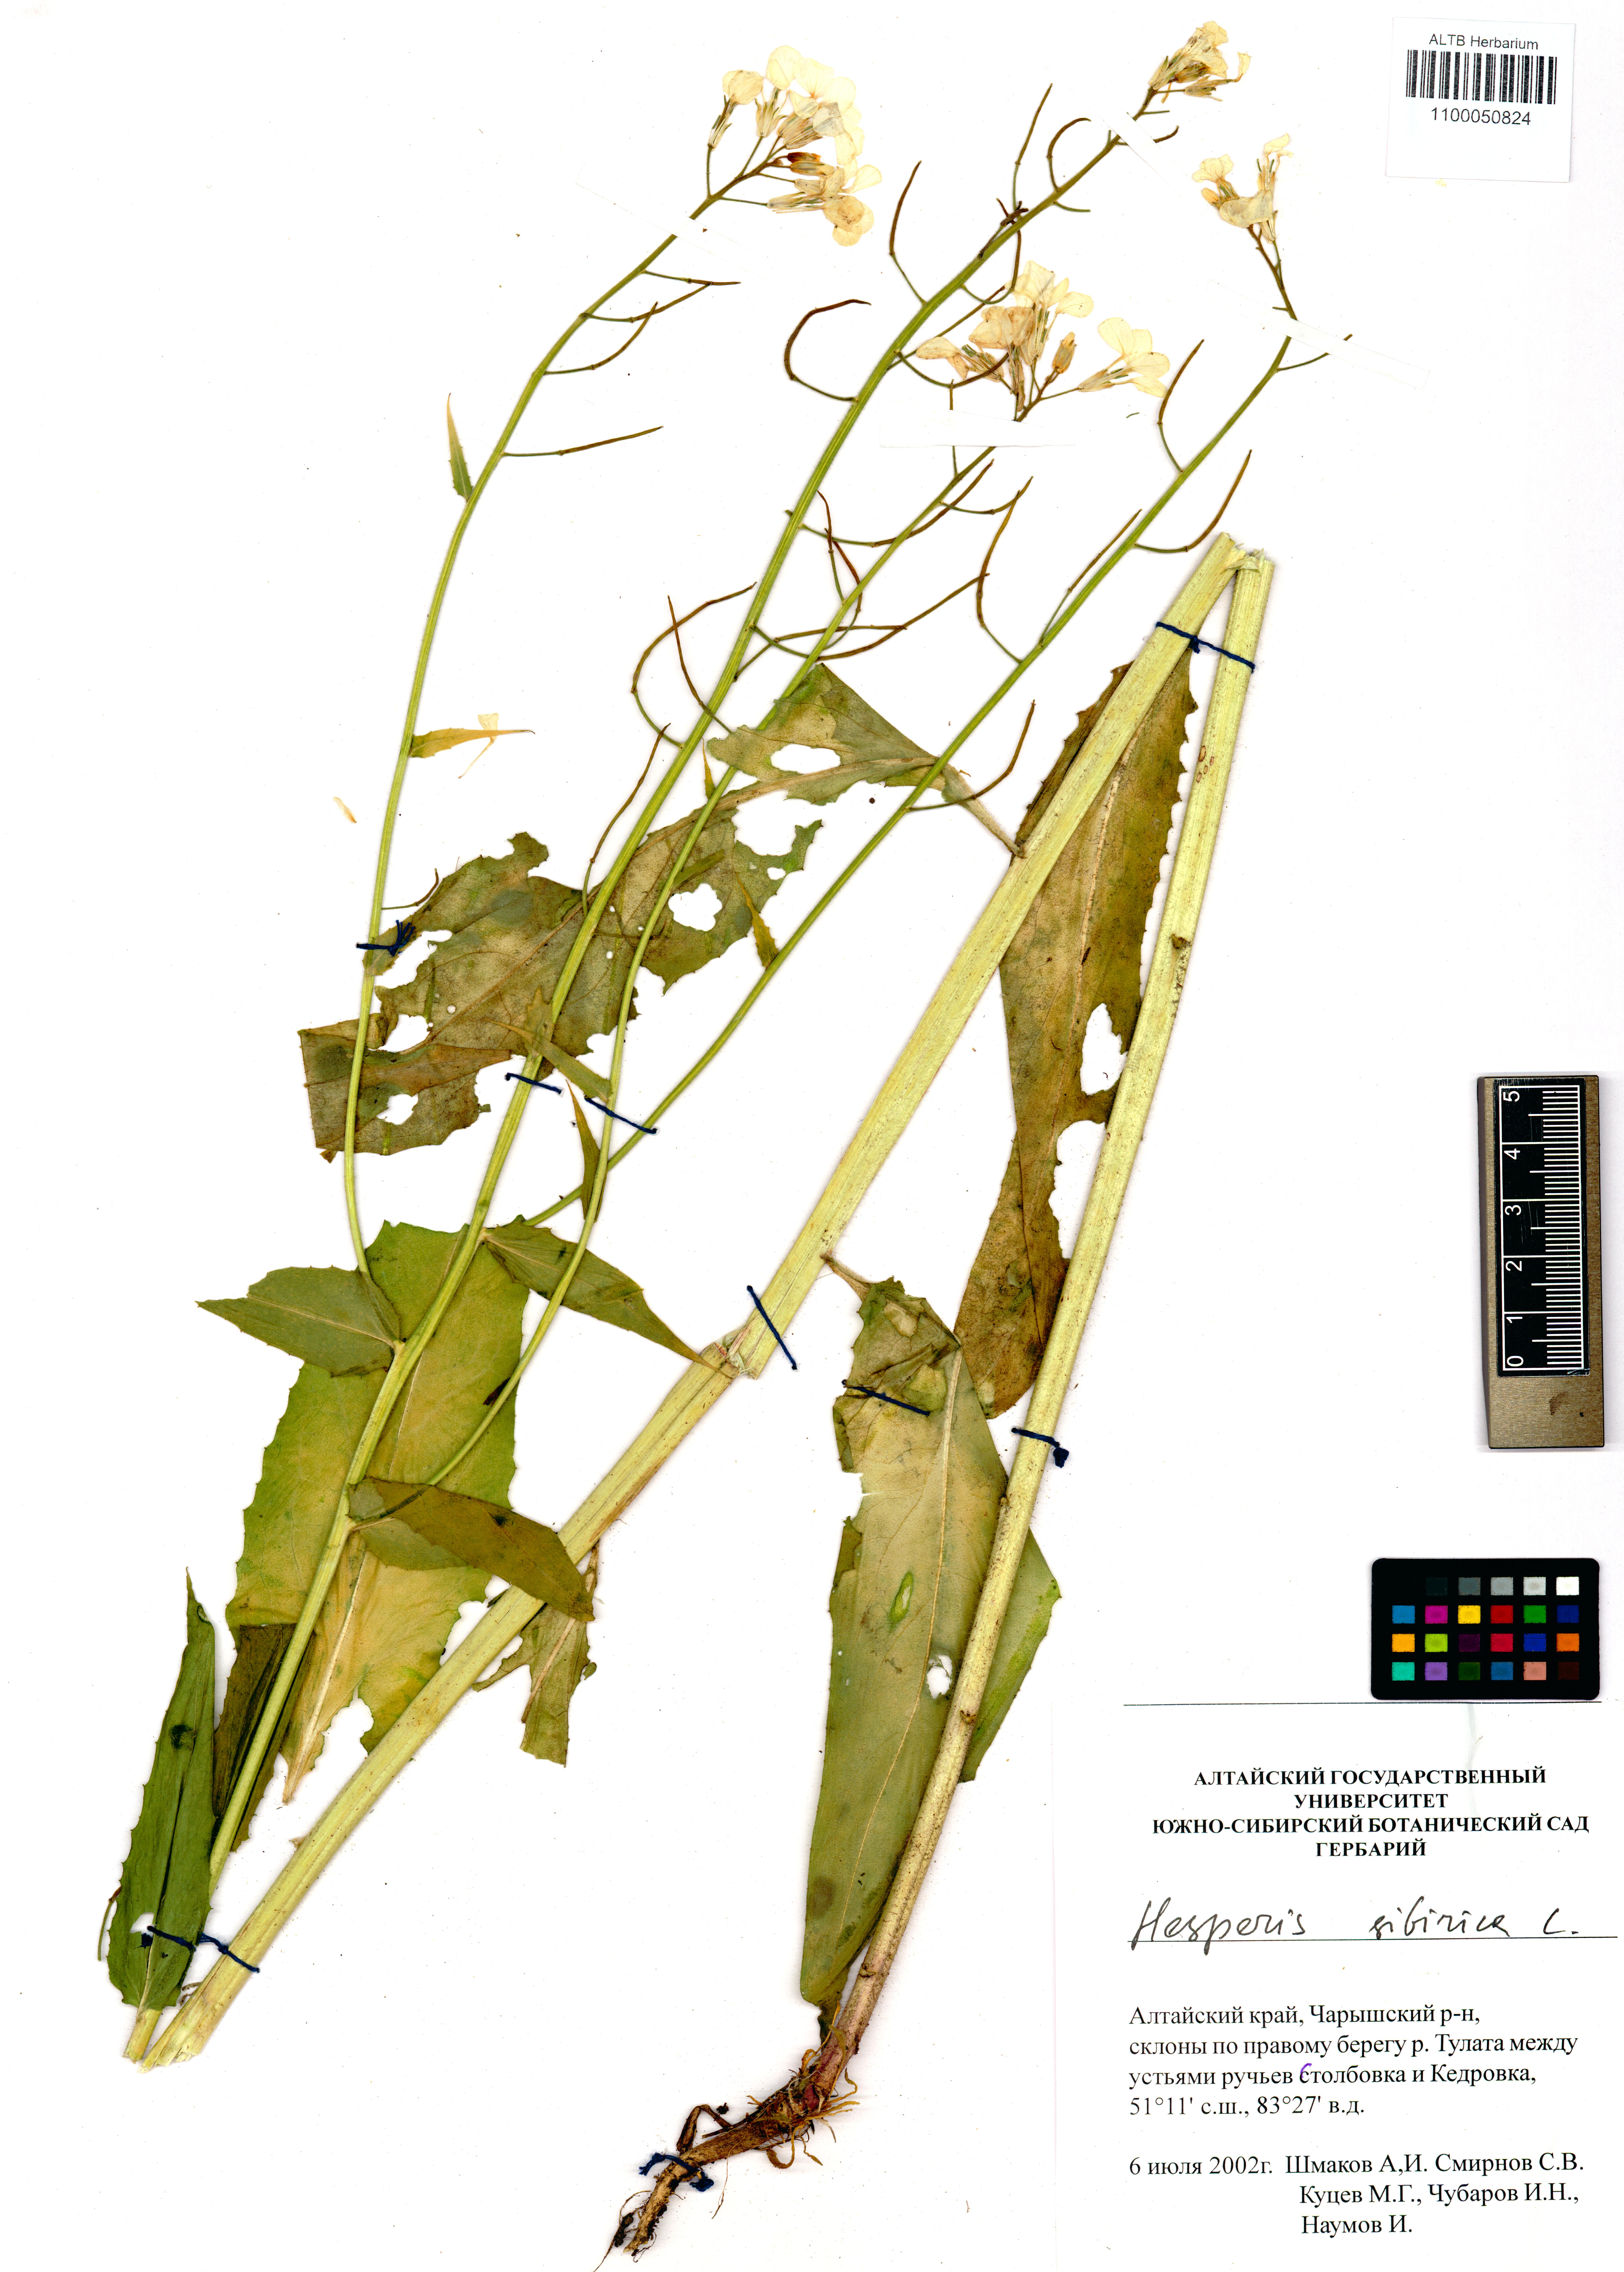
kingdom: Plantae
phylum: Tracheophyta
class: Magnoliopsida
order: Brassicales
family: Brassicaceae
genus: Hesperis
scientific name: Hesperis sibirica
